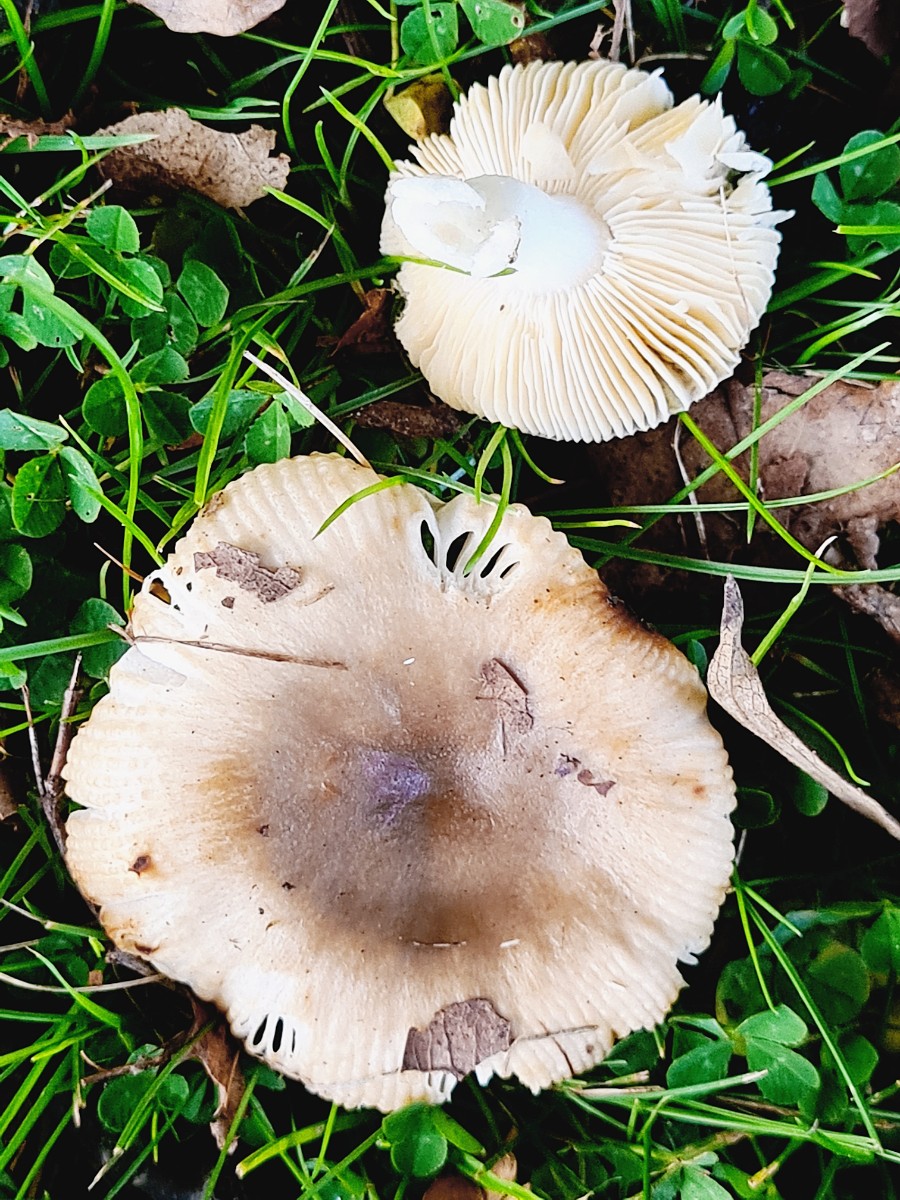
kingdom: Fungi
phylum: Basidiomycota
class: Agaricomycetes
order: Russulales
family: Russulaceae
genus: Russula
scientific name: Russula recondita
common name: mild kam-skørhat
